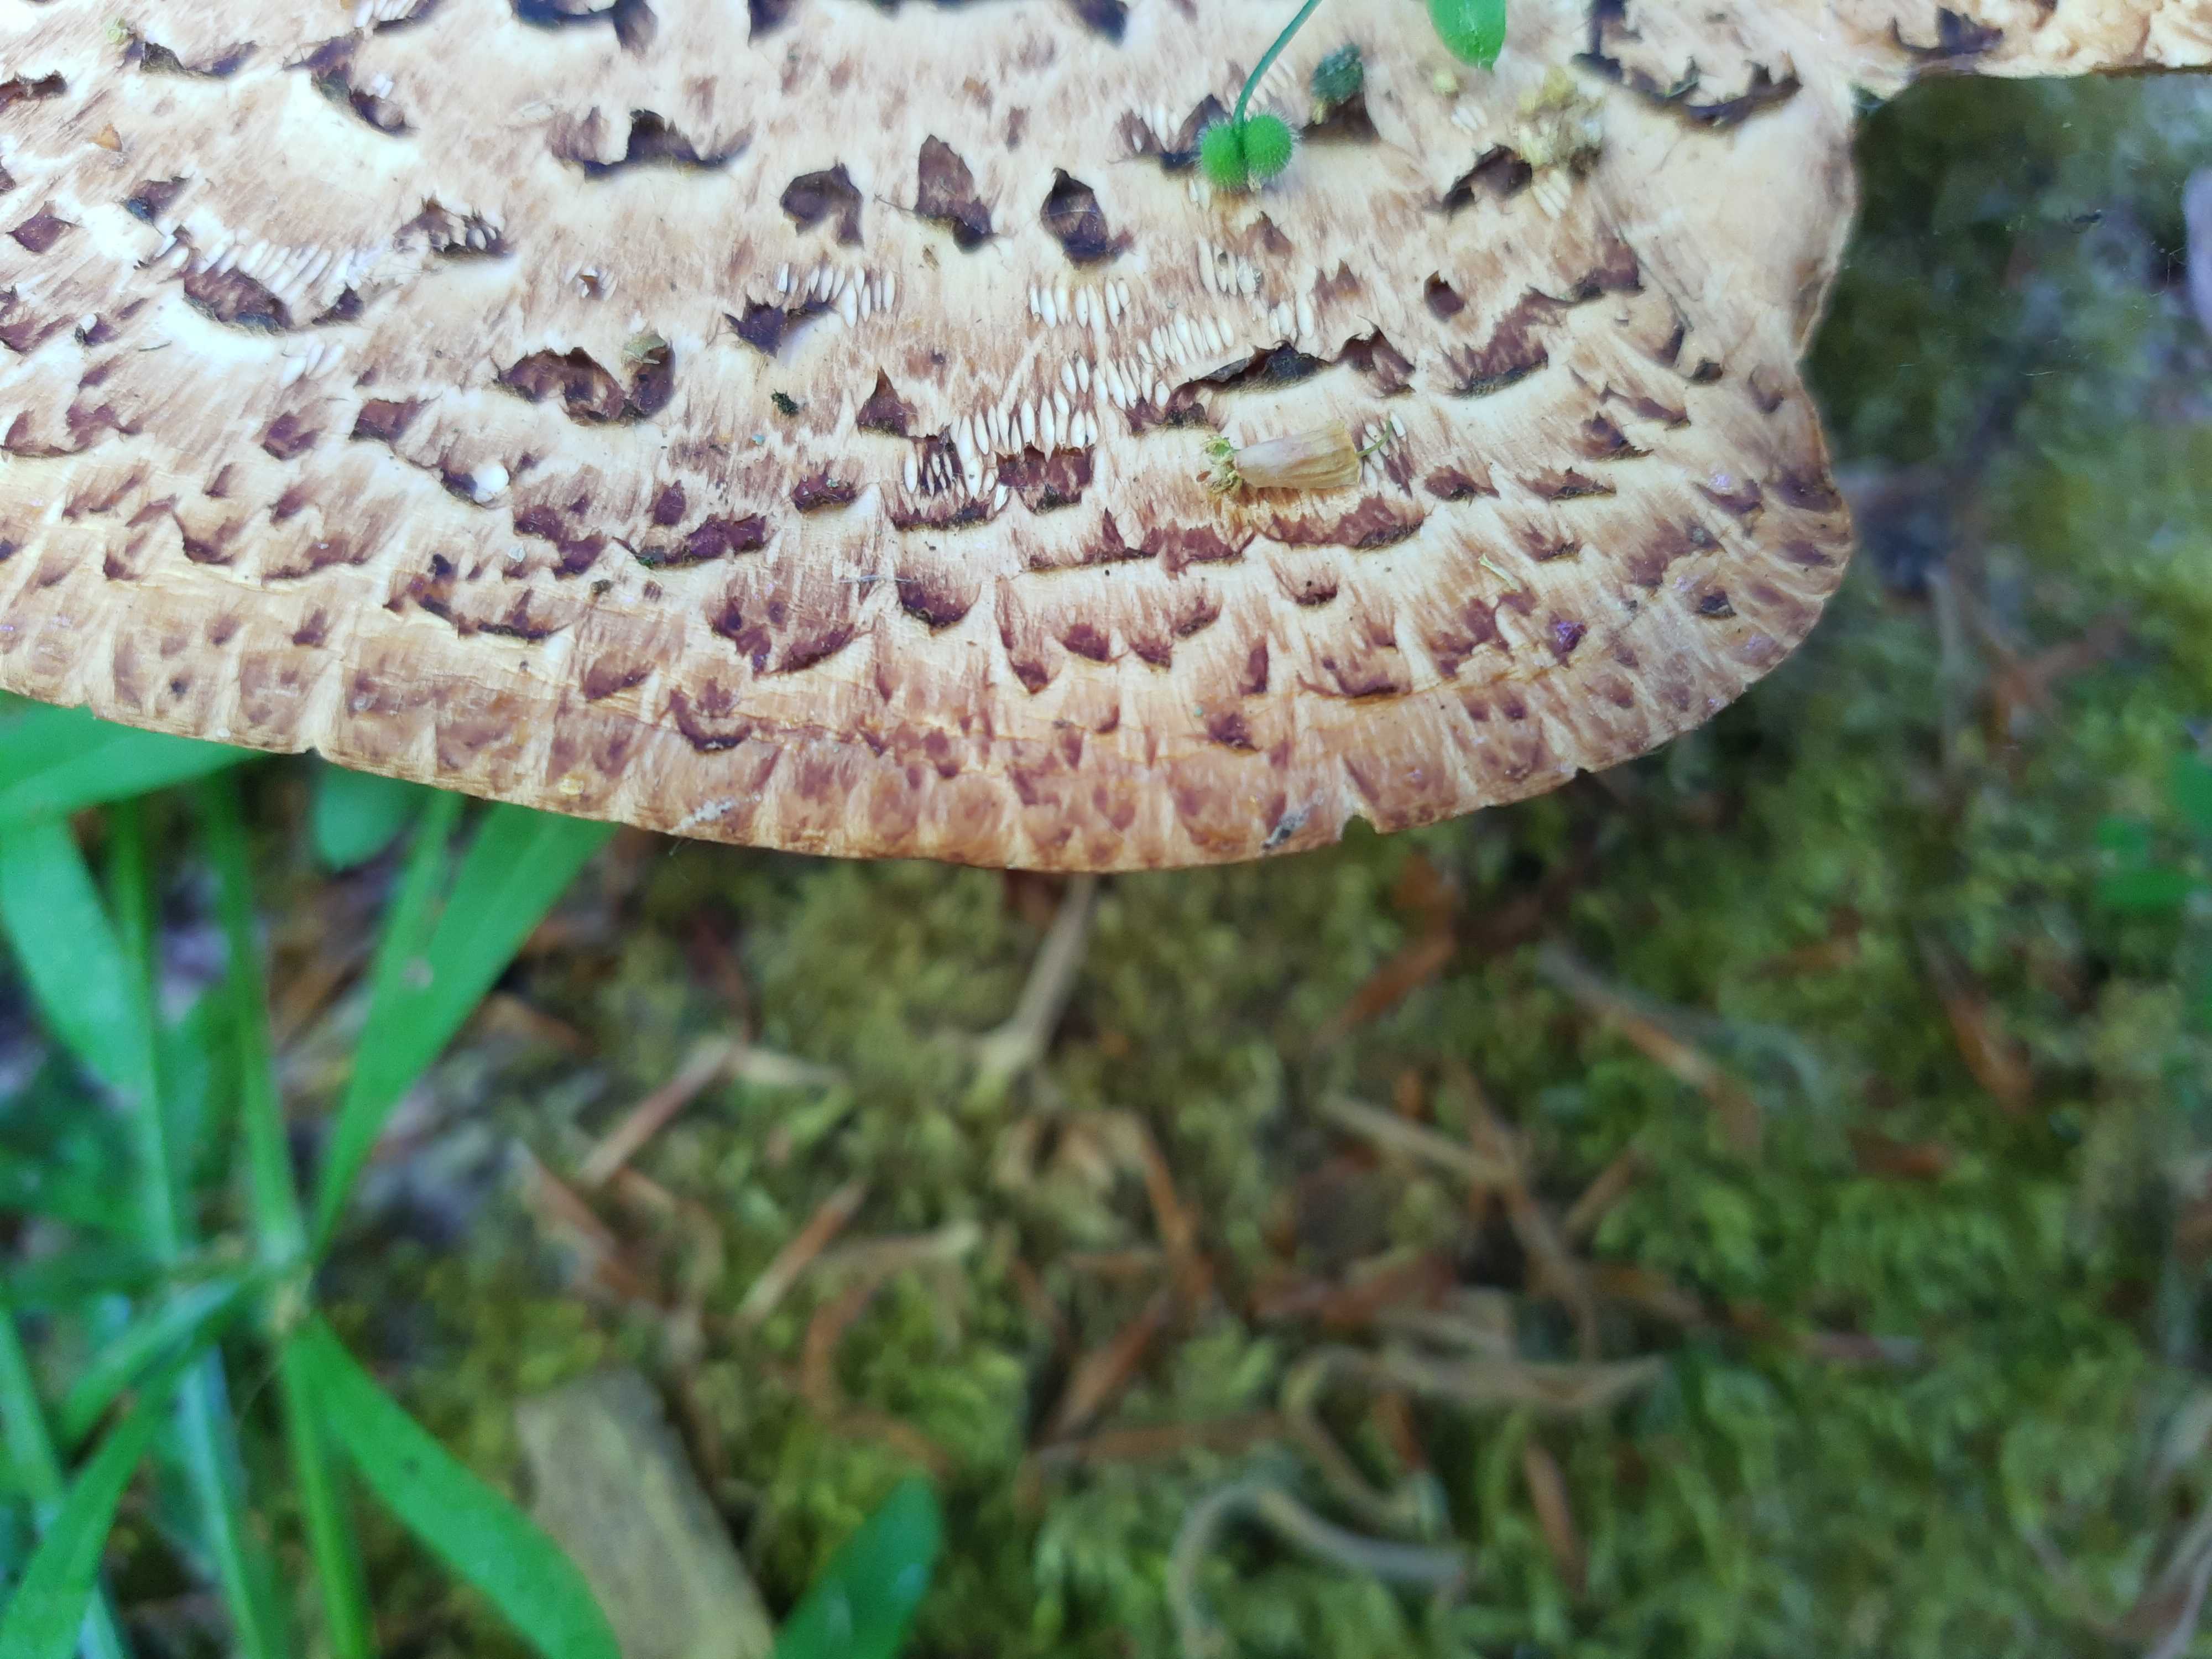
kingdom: Fungi
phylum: Basidiomycota
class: Agaricomycetes
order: Polyporales
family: Polyporaceae
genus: Cerioporus
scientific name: Cerioporus squamosus
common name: skællet stilkporesvamp
